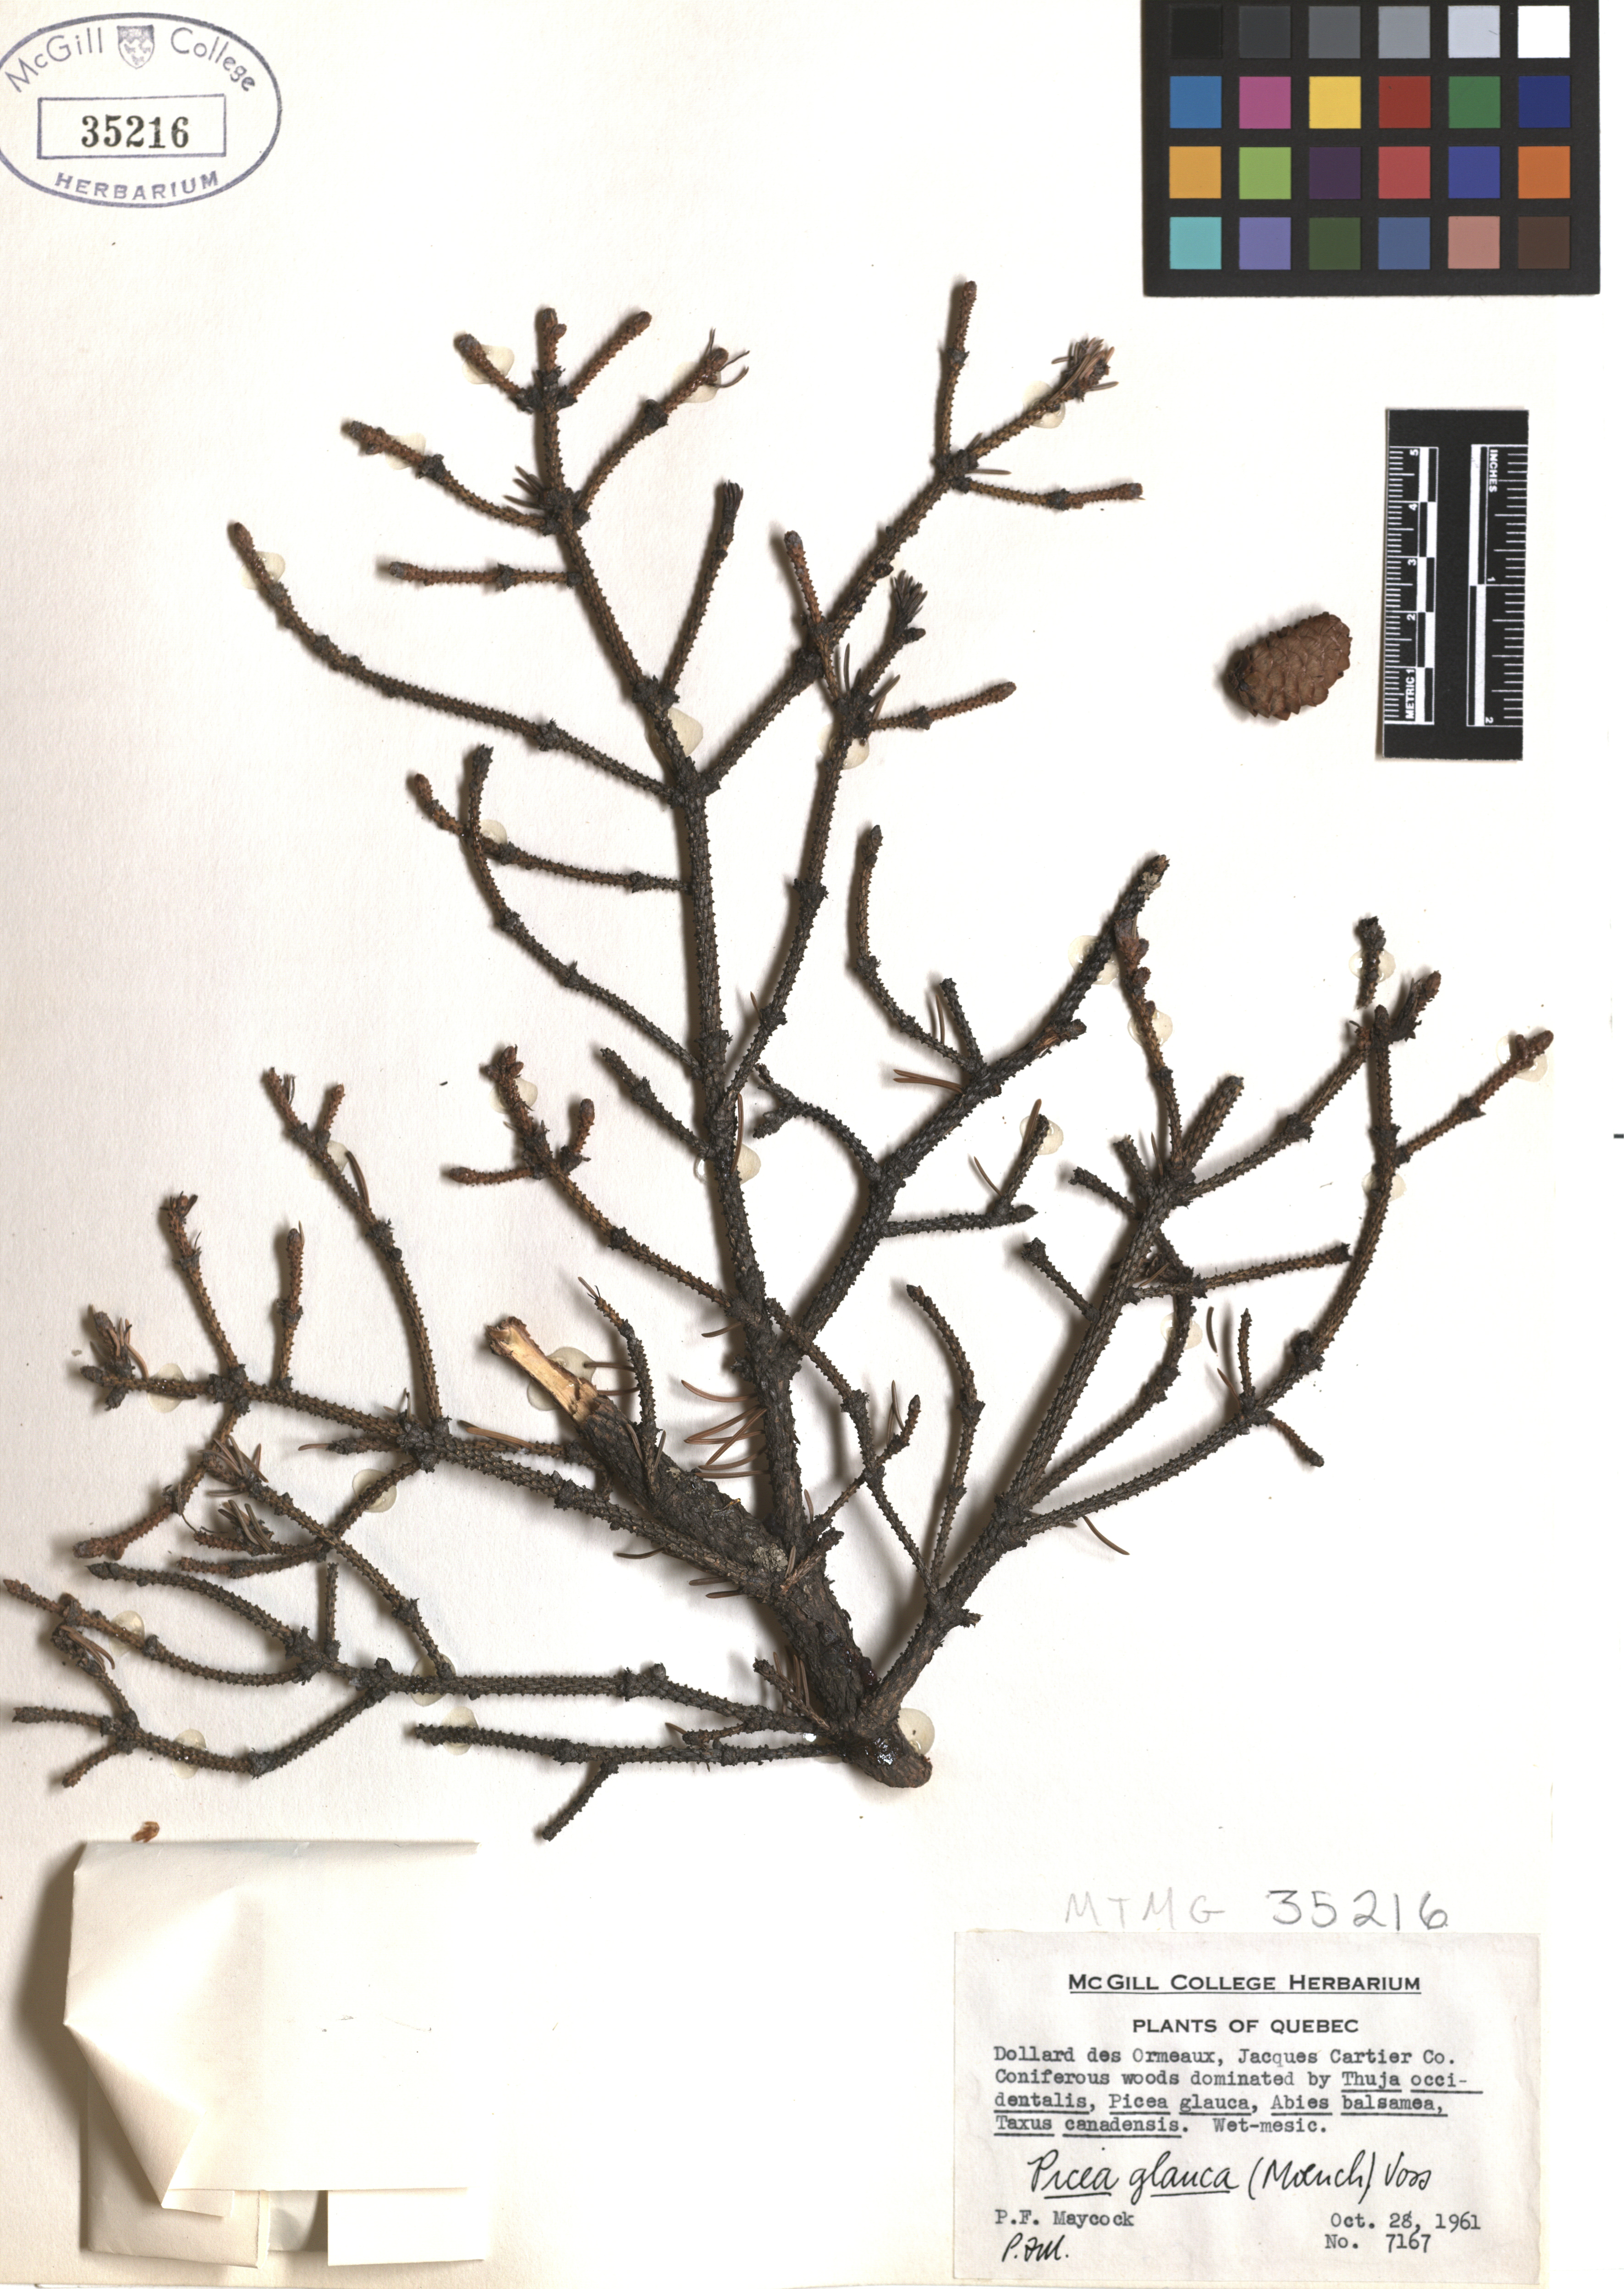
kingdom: Plantae
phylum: Tracheophyta
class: Pinopsida
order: Pinales
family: Pinaceae
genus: Picea
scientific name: Picea glauca
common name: White spruce
